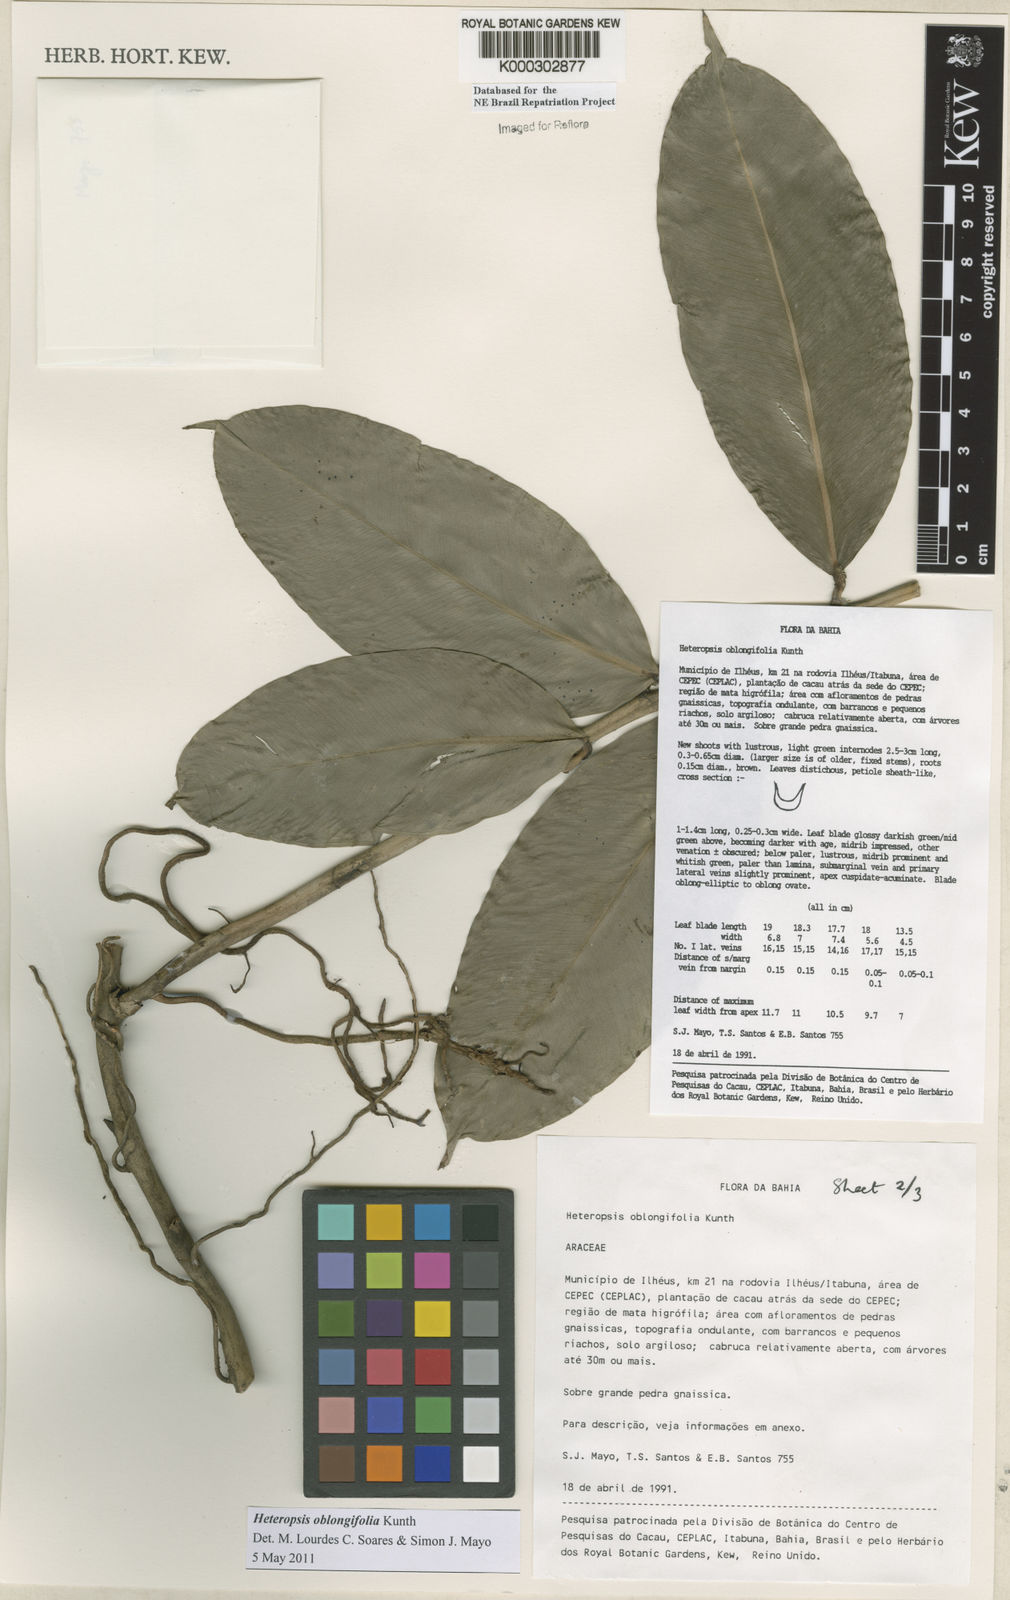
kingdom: Plantae
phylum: Tracheophyta
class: Liliopsida
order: Alismatales
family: Araceae
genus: Heteropsis
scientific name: Heteropsis oblongifolia
